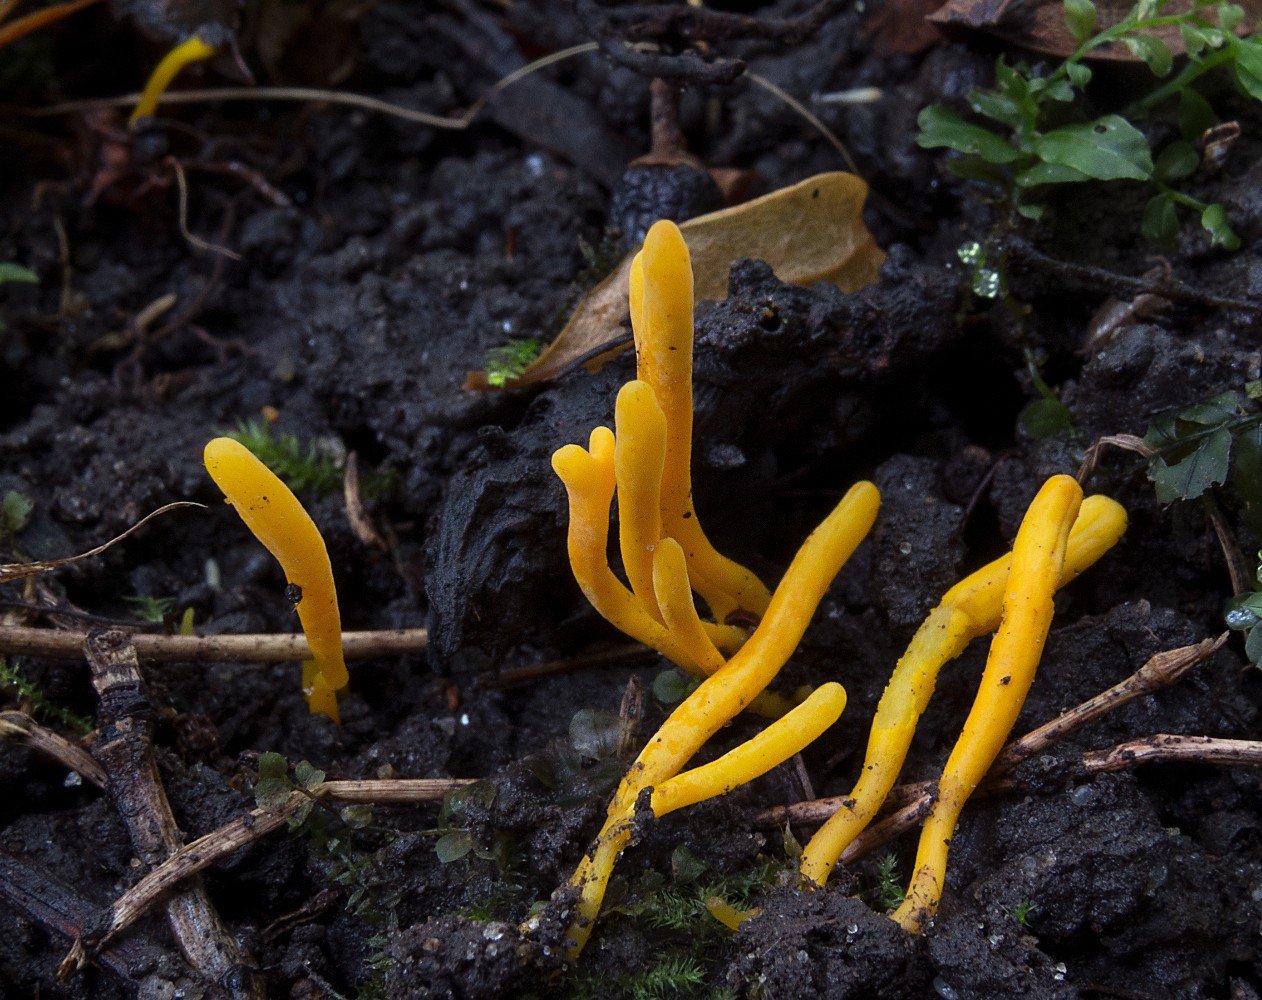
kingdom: Fungi
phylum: Basidiomycota
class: Agaricomycetes
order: Agaricales
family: Clavariaceae
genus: Clavulinopsis
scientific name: Clavulinopsis laeticolor
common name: flamme-køllesvamp
